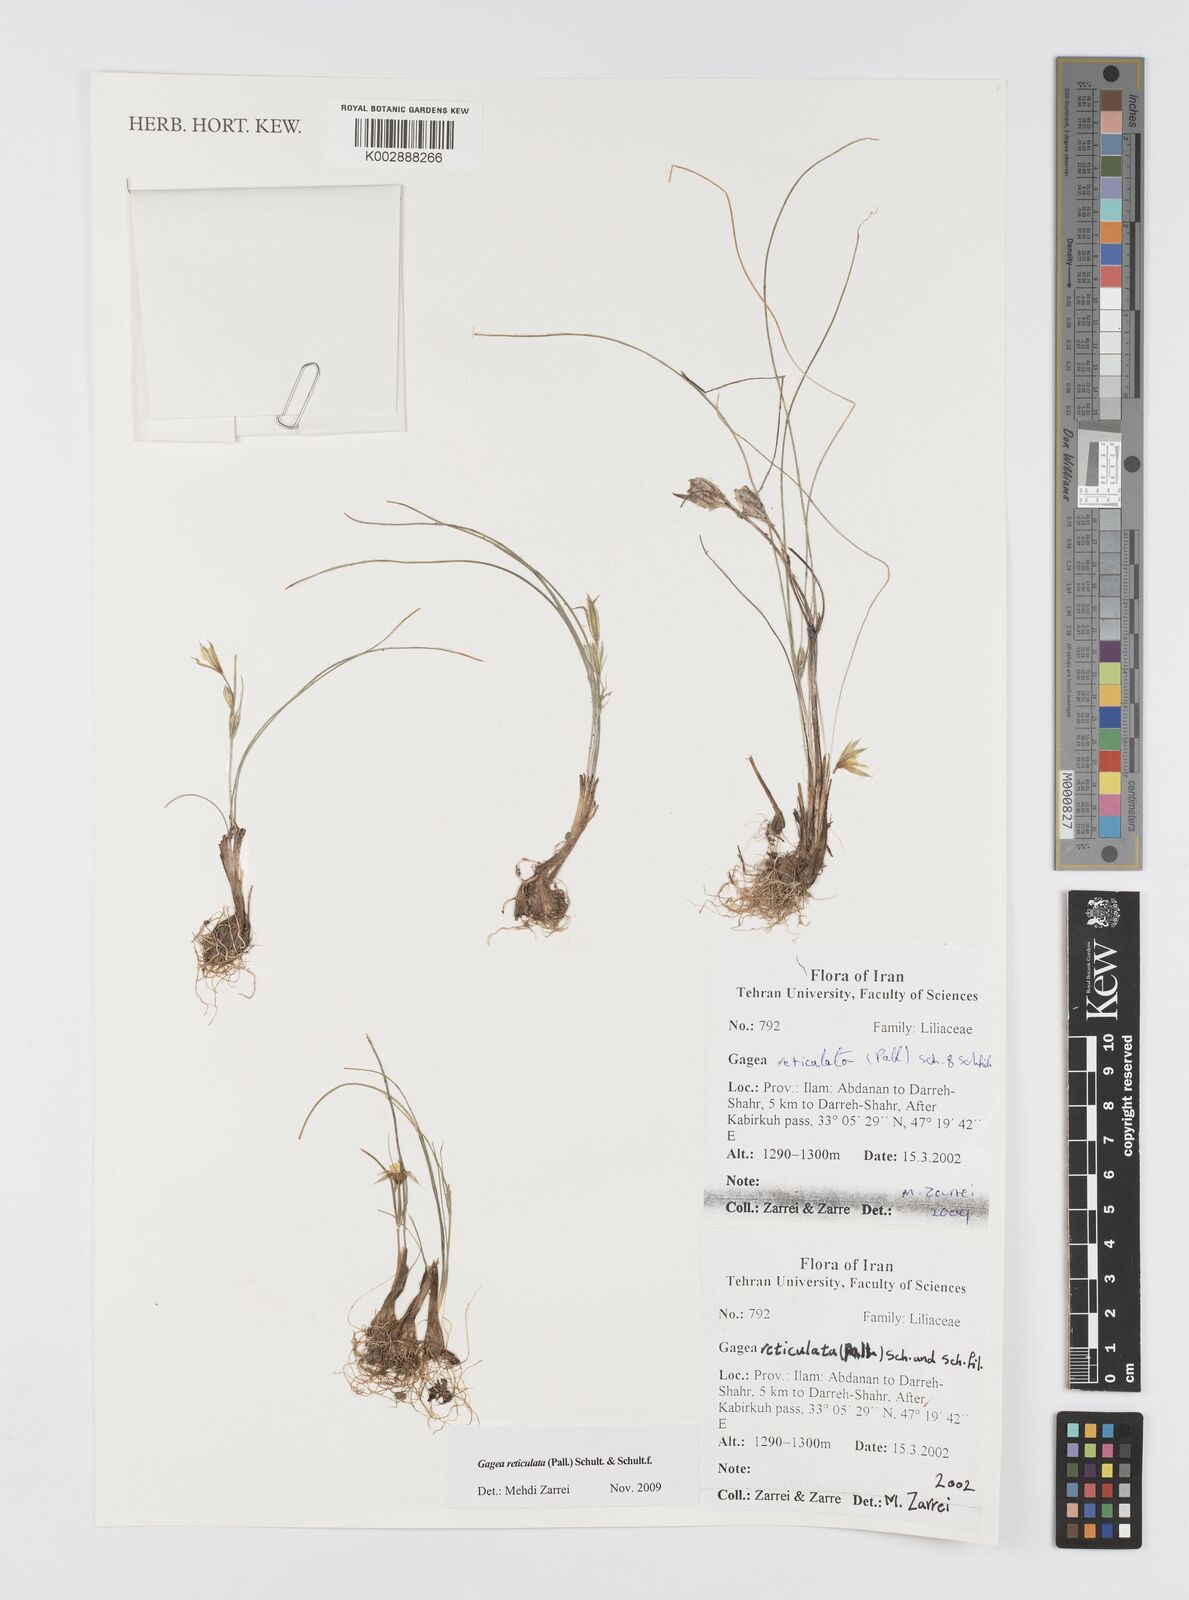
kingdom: Plantae
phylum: Tracheophyta
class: Liliopsida
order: Liliales
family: Liliaceae
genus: Gagea
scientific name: Gagea reticulata
